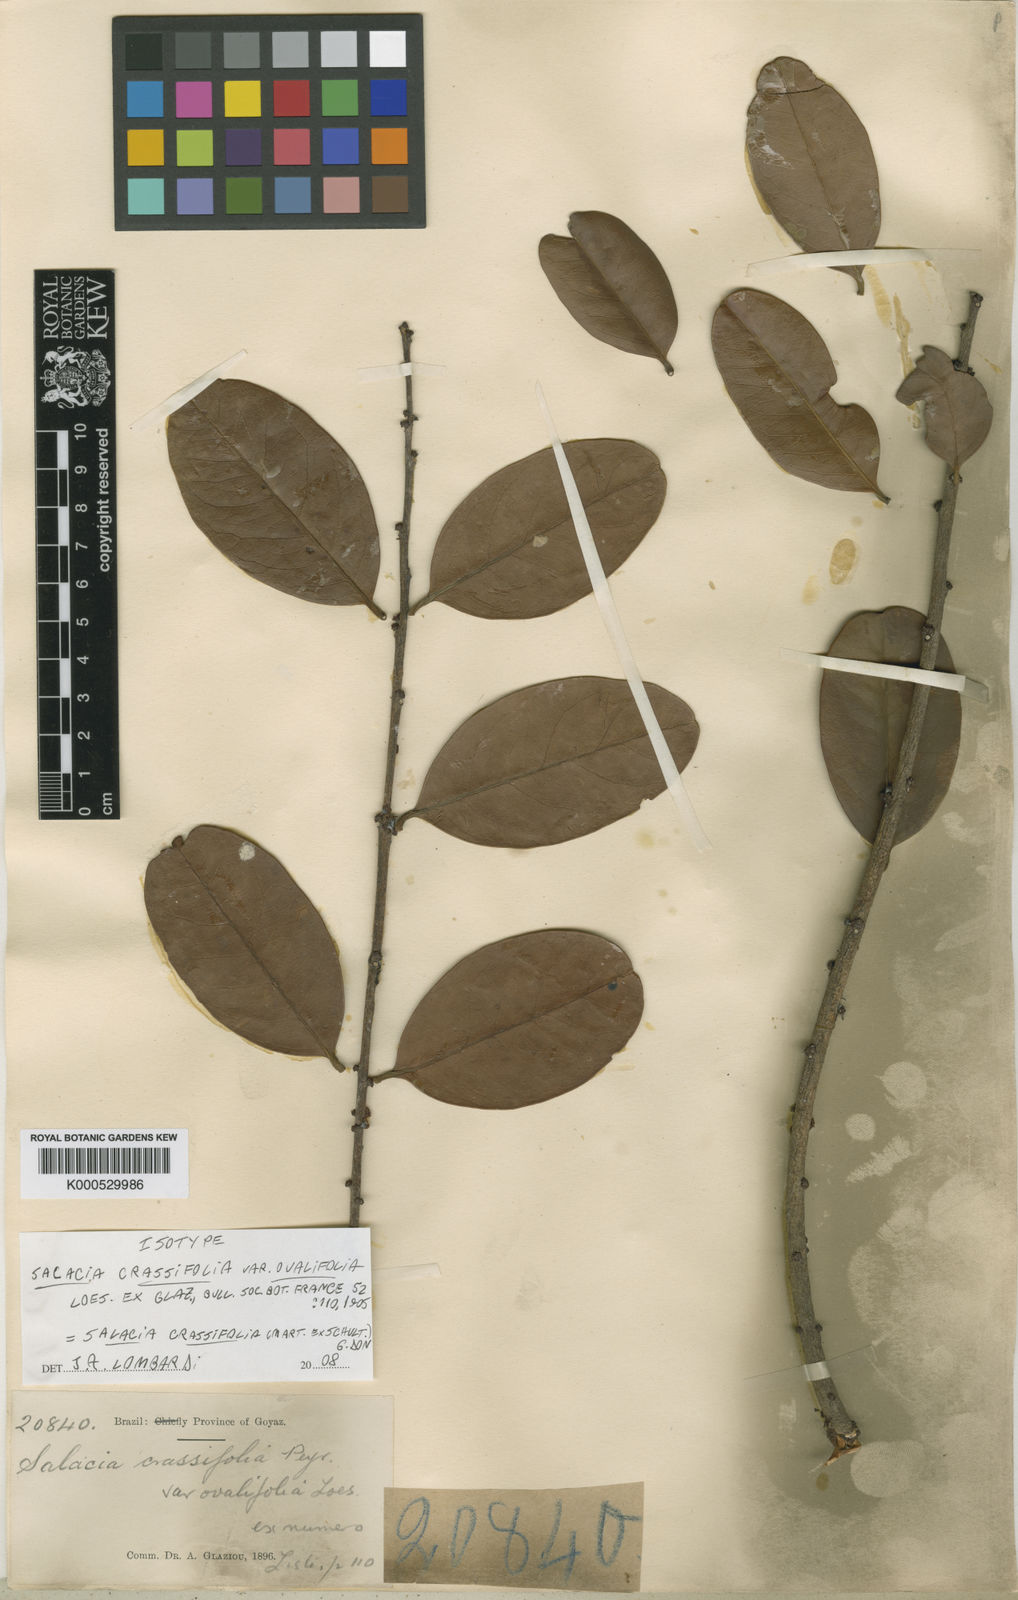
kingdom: Plantae
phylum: Tracheophyta
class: Magnoliopsida
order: Celastrales
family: Celastraceae
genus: Salacia
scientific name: Salacia crassifolia
